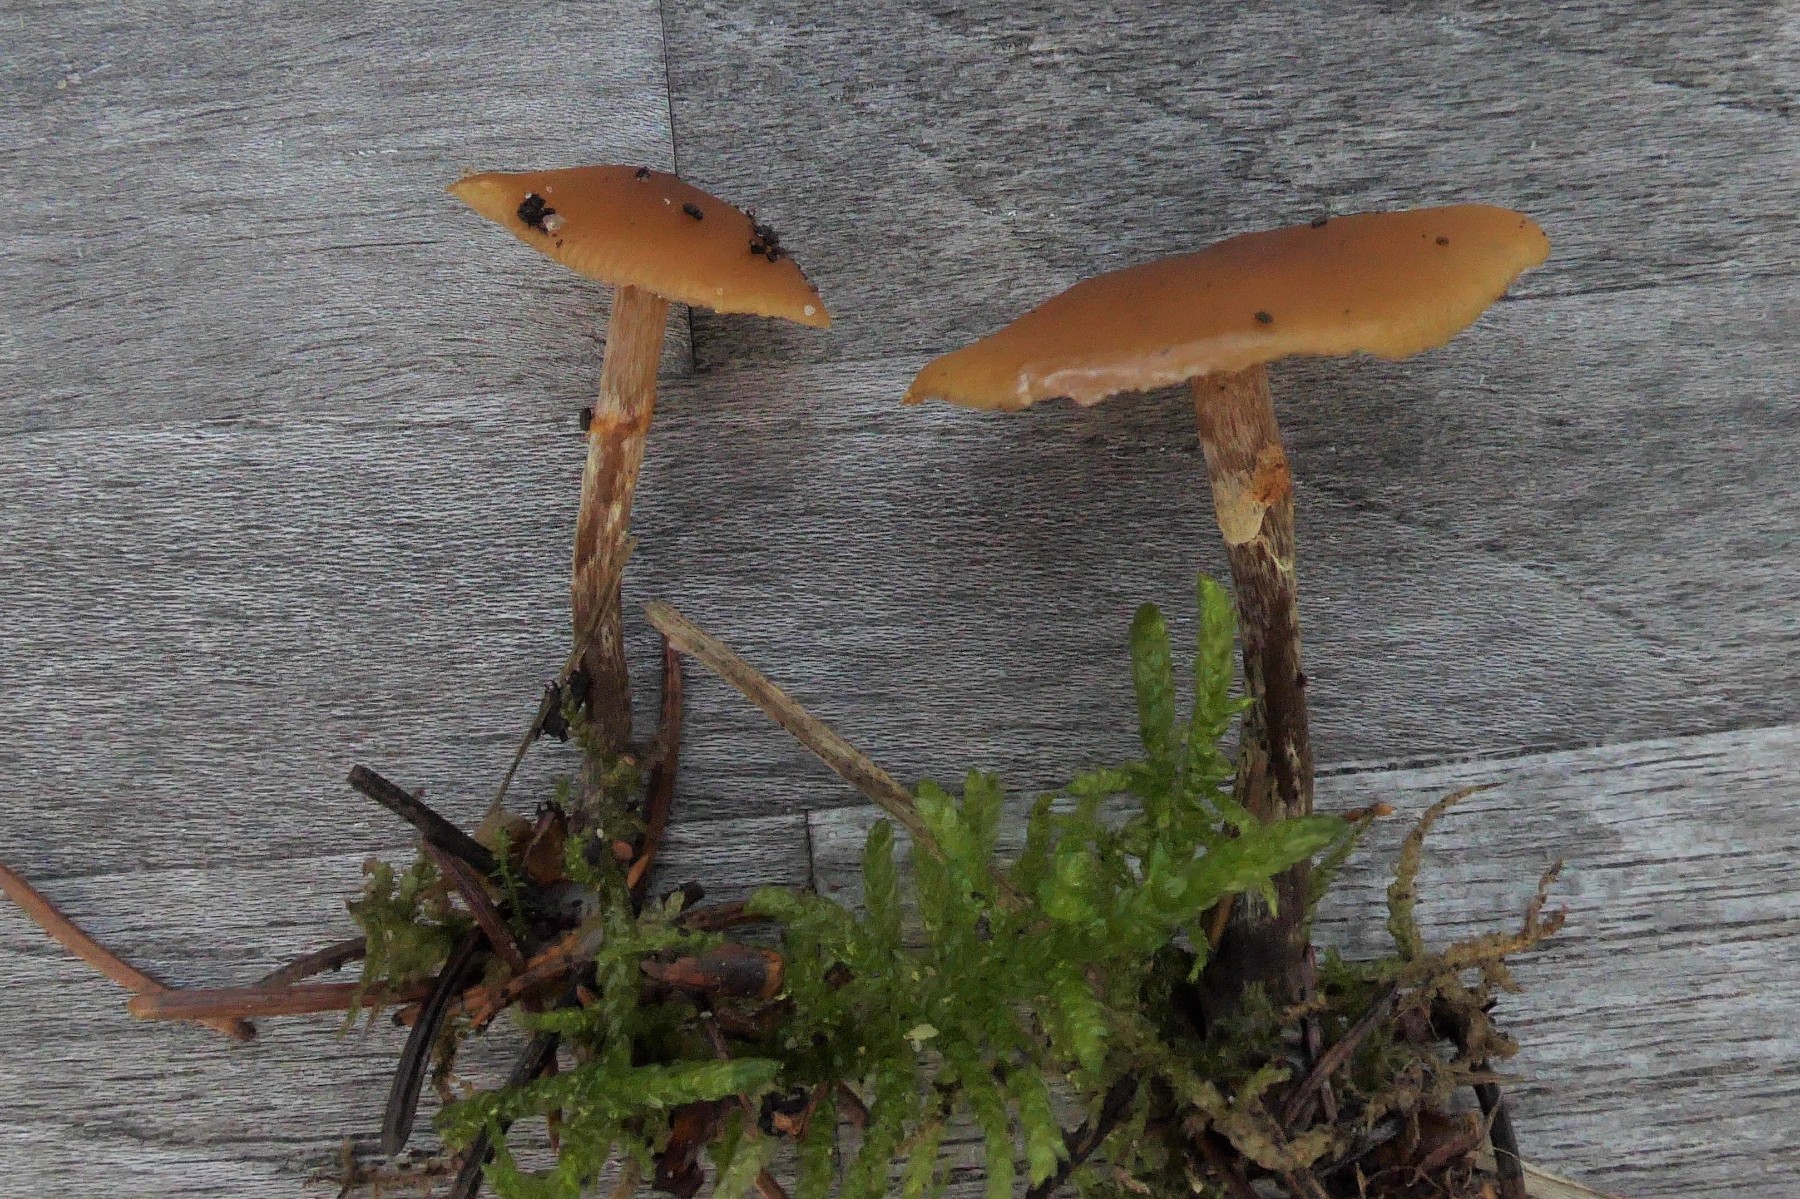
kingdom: Fungi
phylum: Basidiomycota
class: Agaricomycetes
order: Agaricales
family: Hymenogastraceae
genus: Galerina
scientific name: Galerina marginata
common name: randbæltet hjelmhat
